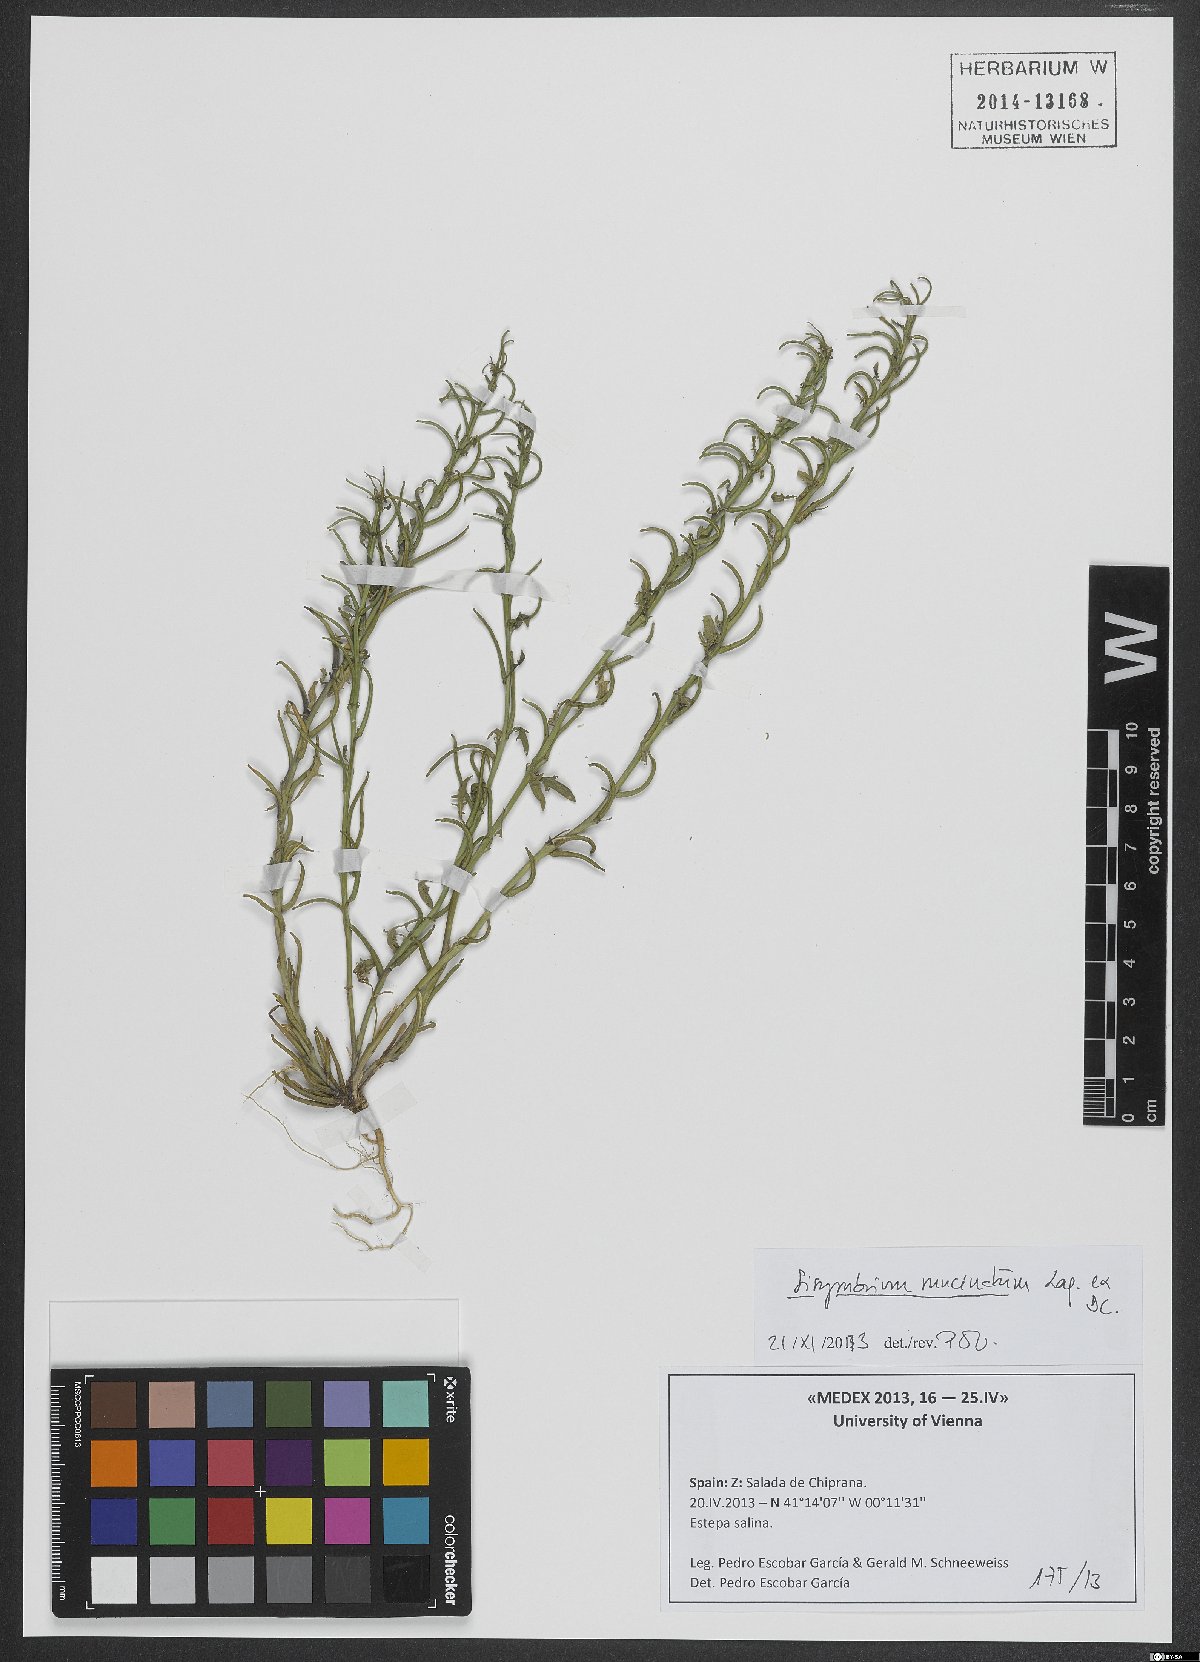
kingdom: Plantae
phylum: Tracheophyta
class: Magnoliopsida
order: Brassicales
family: Brassicaceae
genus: Sisymbrium
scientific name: Sisymbrium runcinatum
